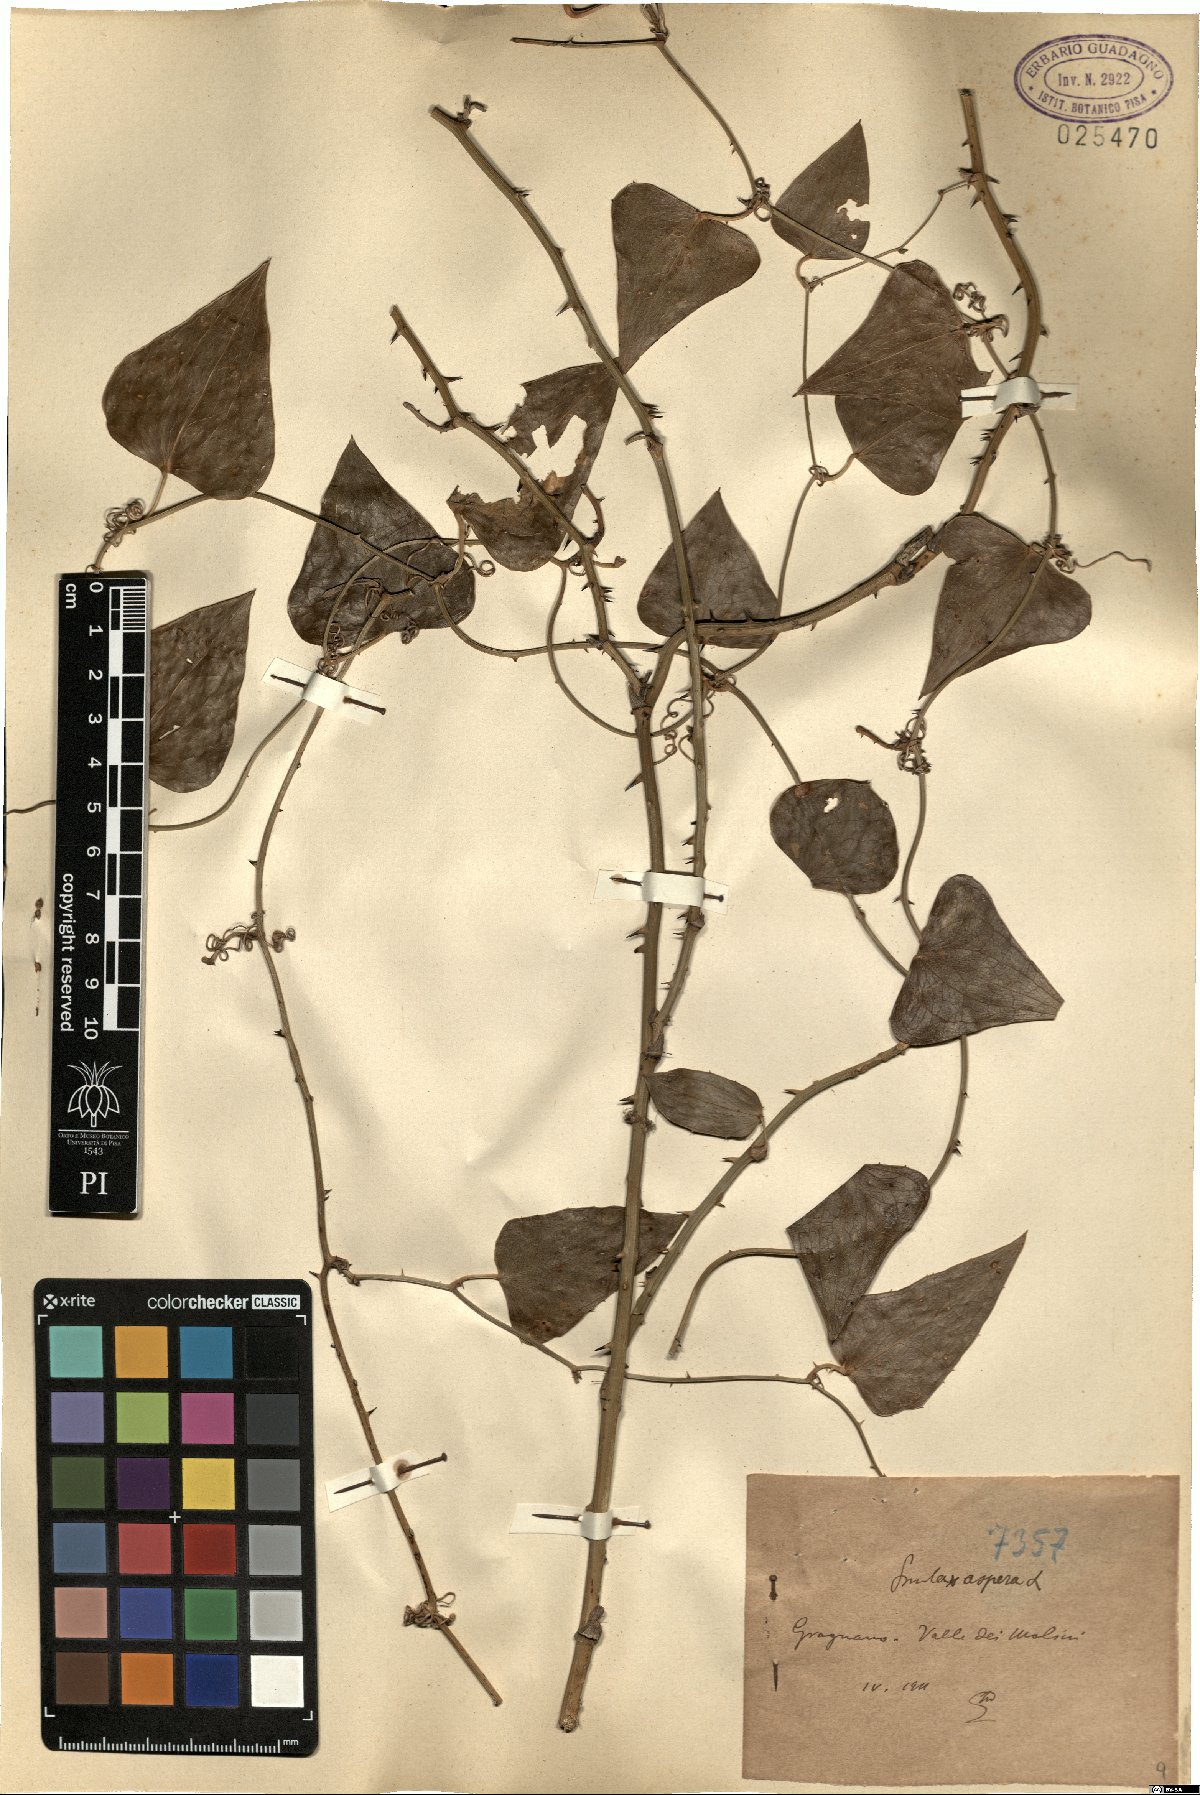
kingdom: Plantae
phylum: Tracheophyta
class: Liliopsida
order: Liliales
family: Smilacaceae
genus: Smilax
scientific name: Smilax aspera
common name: Common smilax
